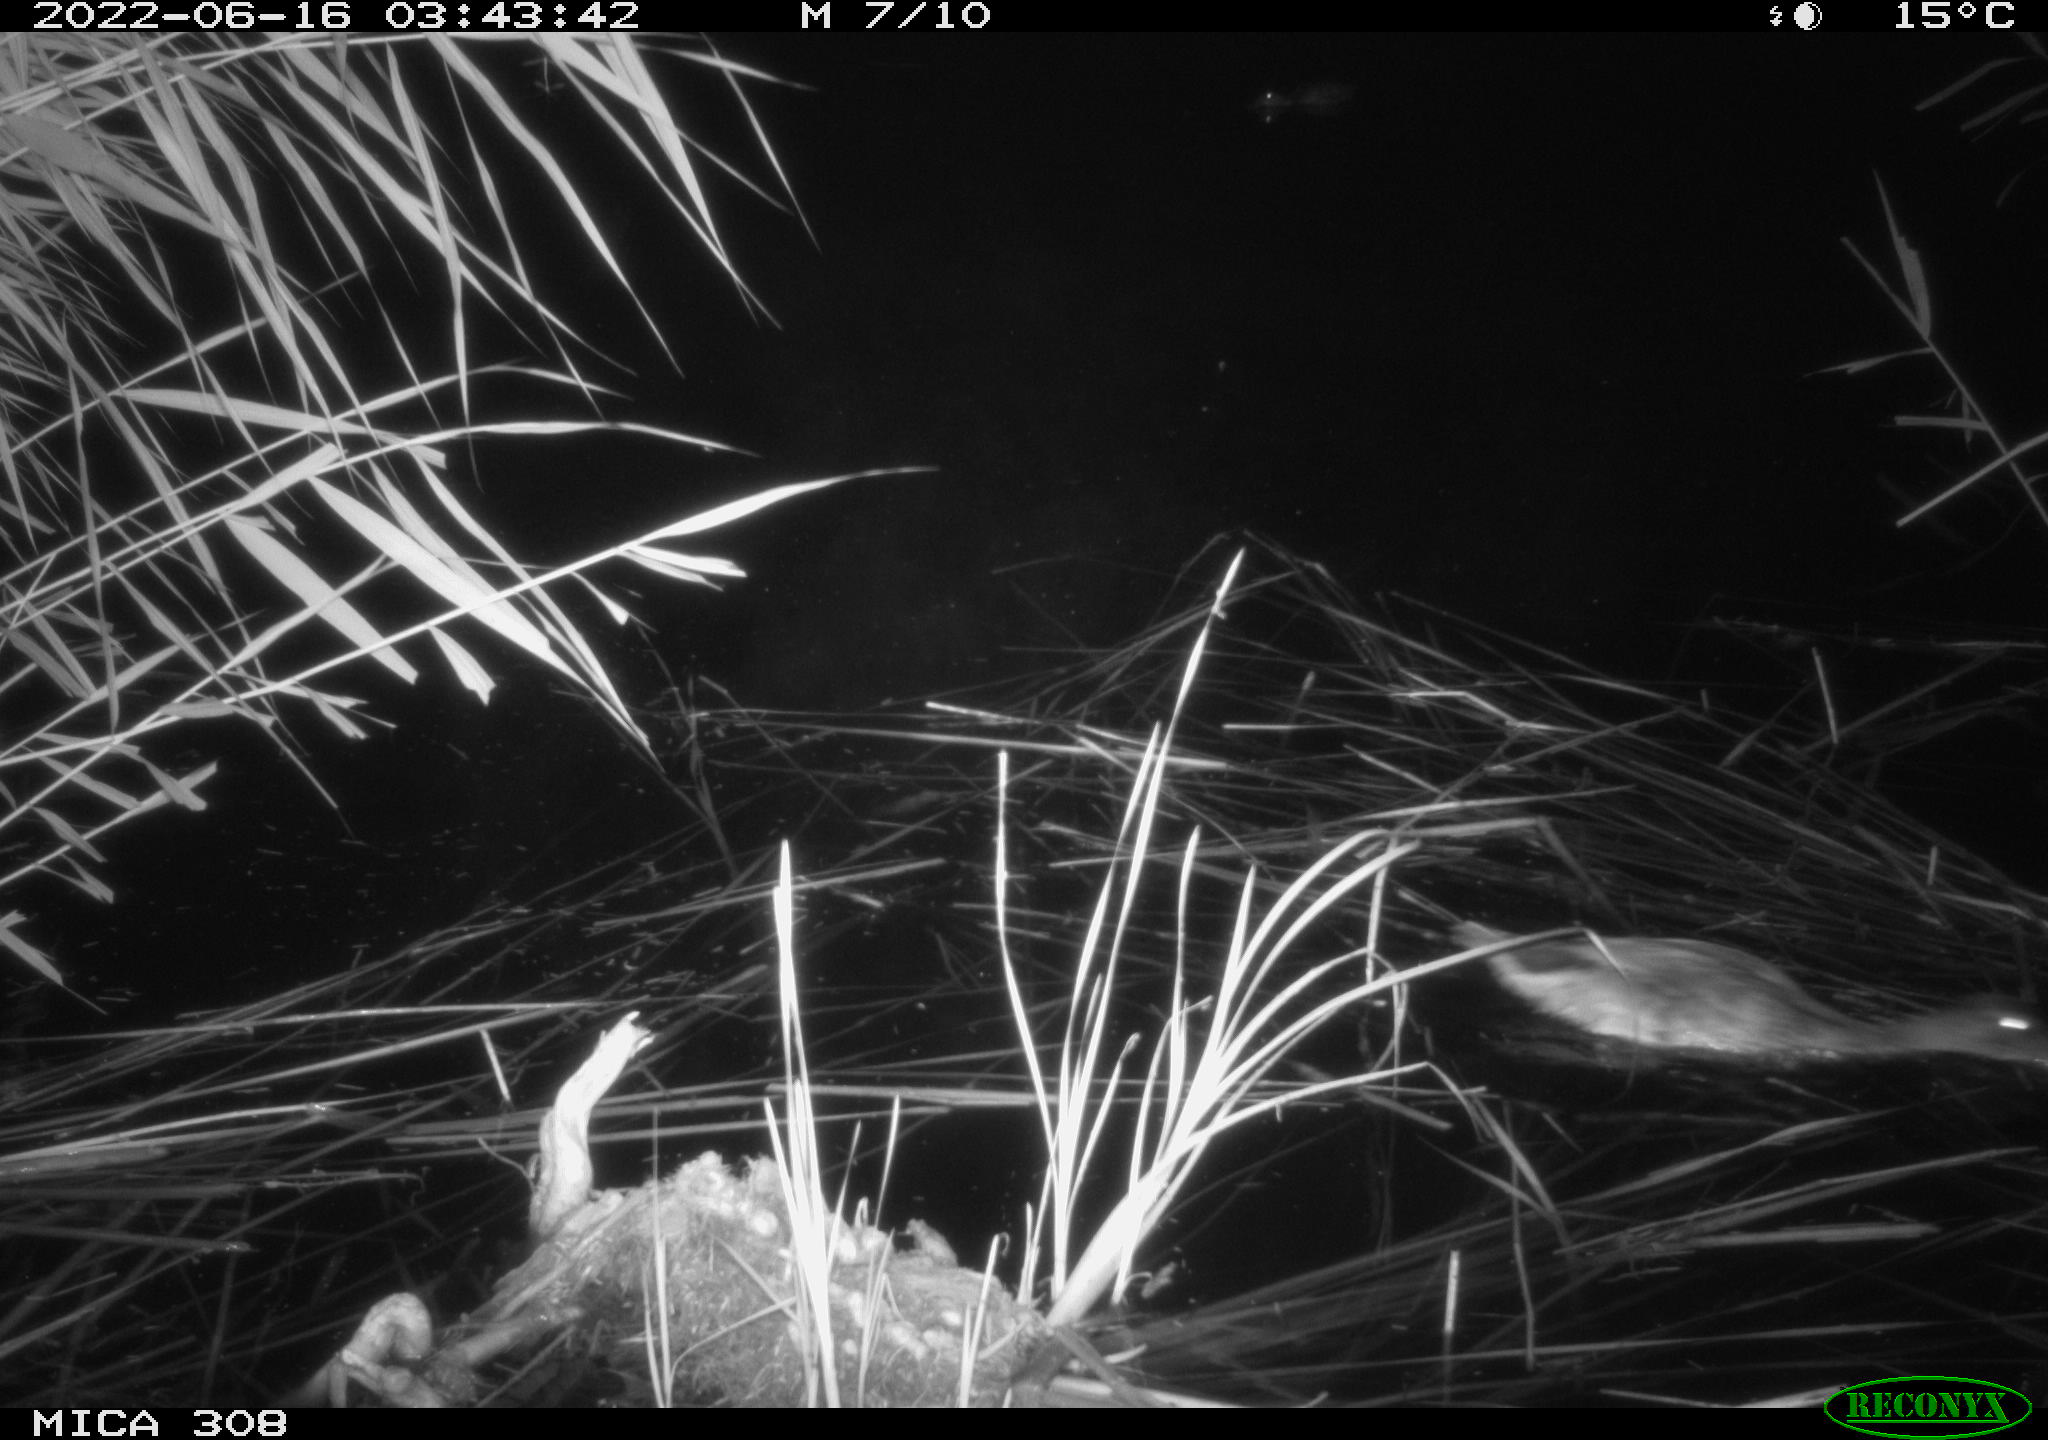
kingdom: Animalia
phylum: Chordata
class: Aves
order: Anseriformes
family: Anatidae
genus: Anas
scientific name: Anas platyrhynchos
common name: Mallard
